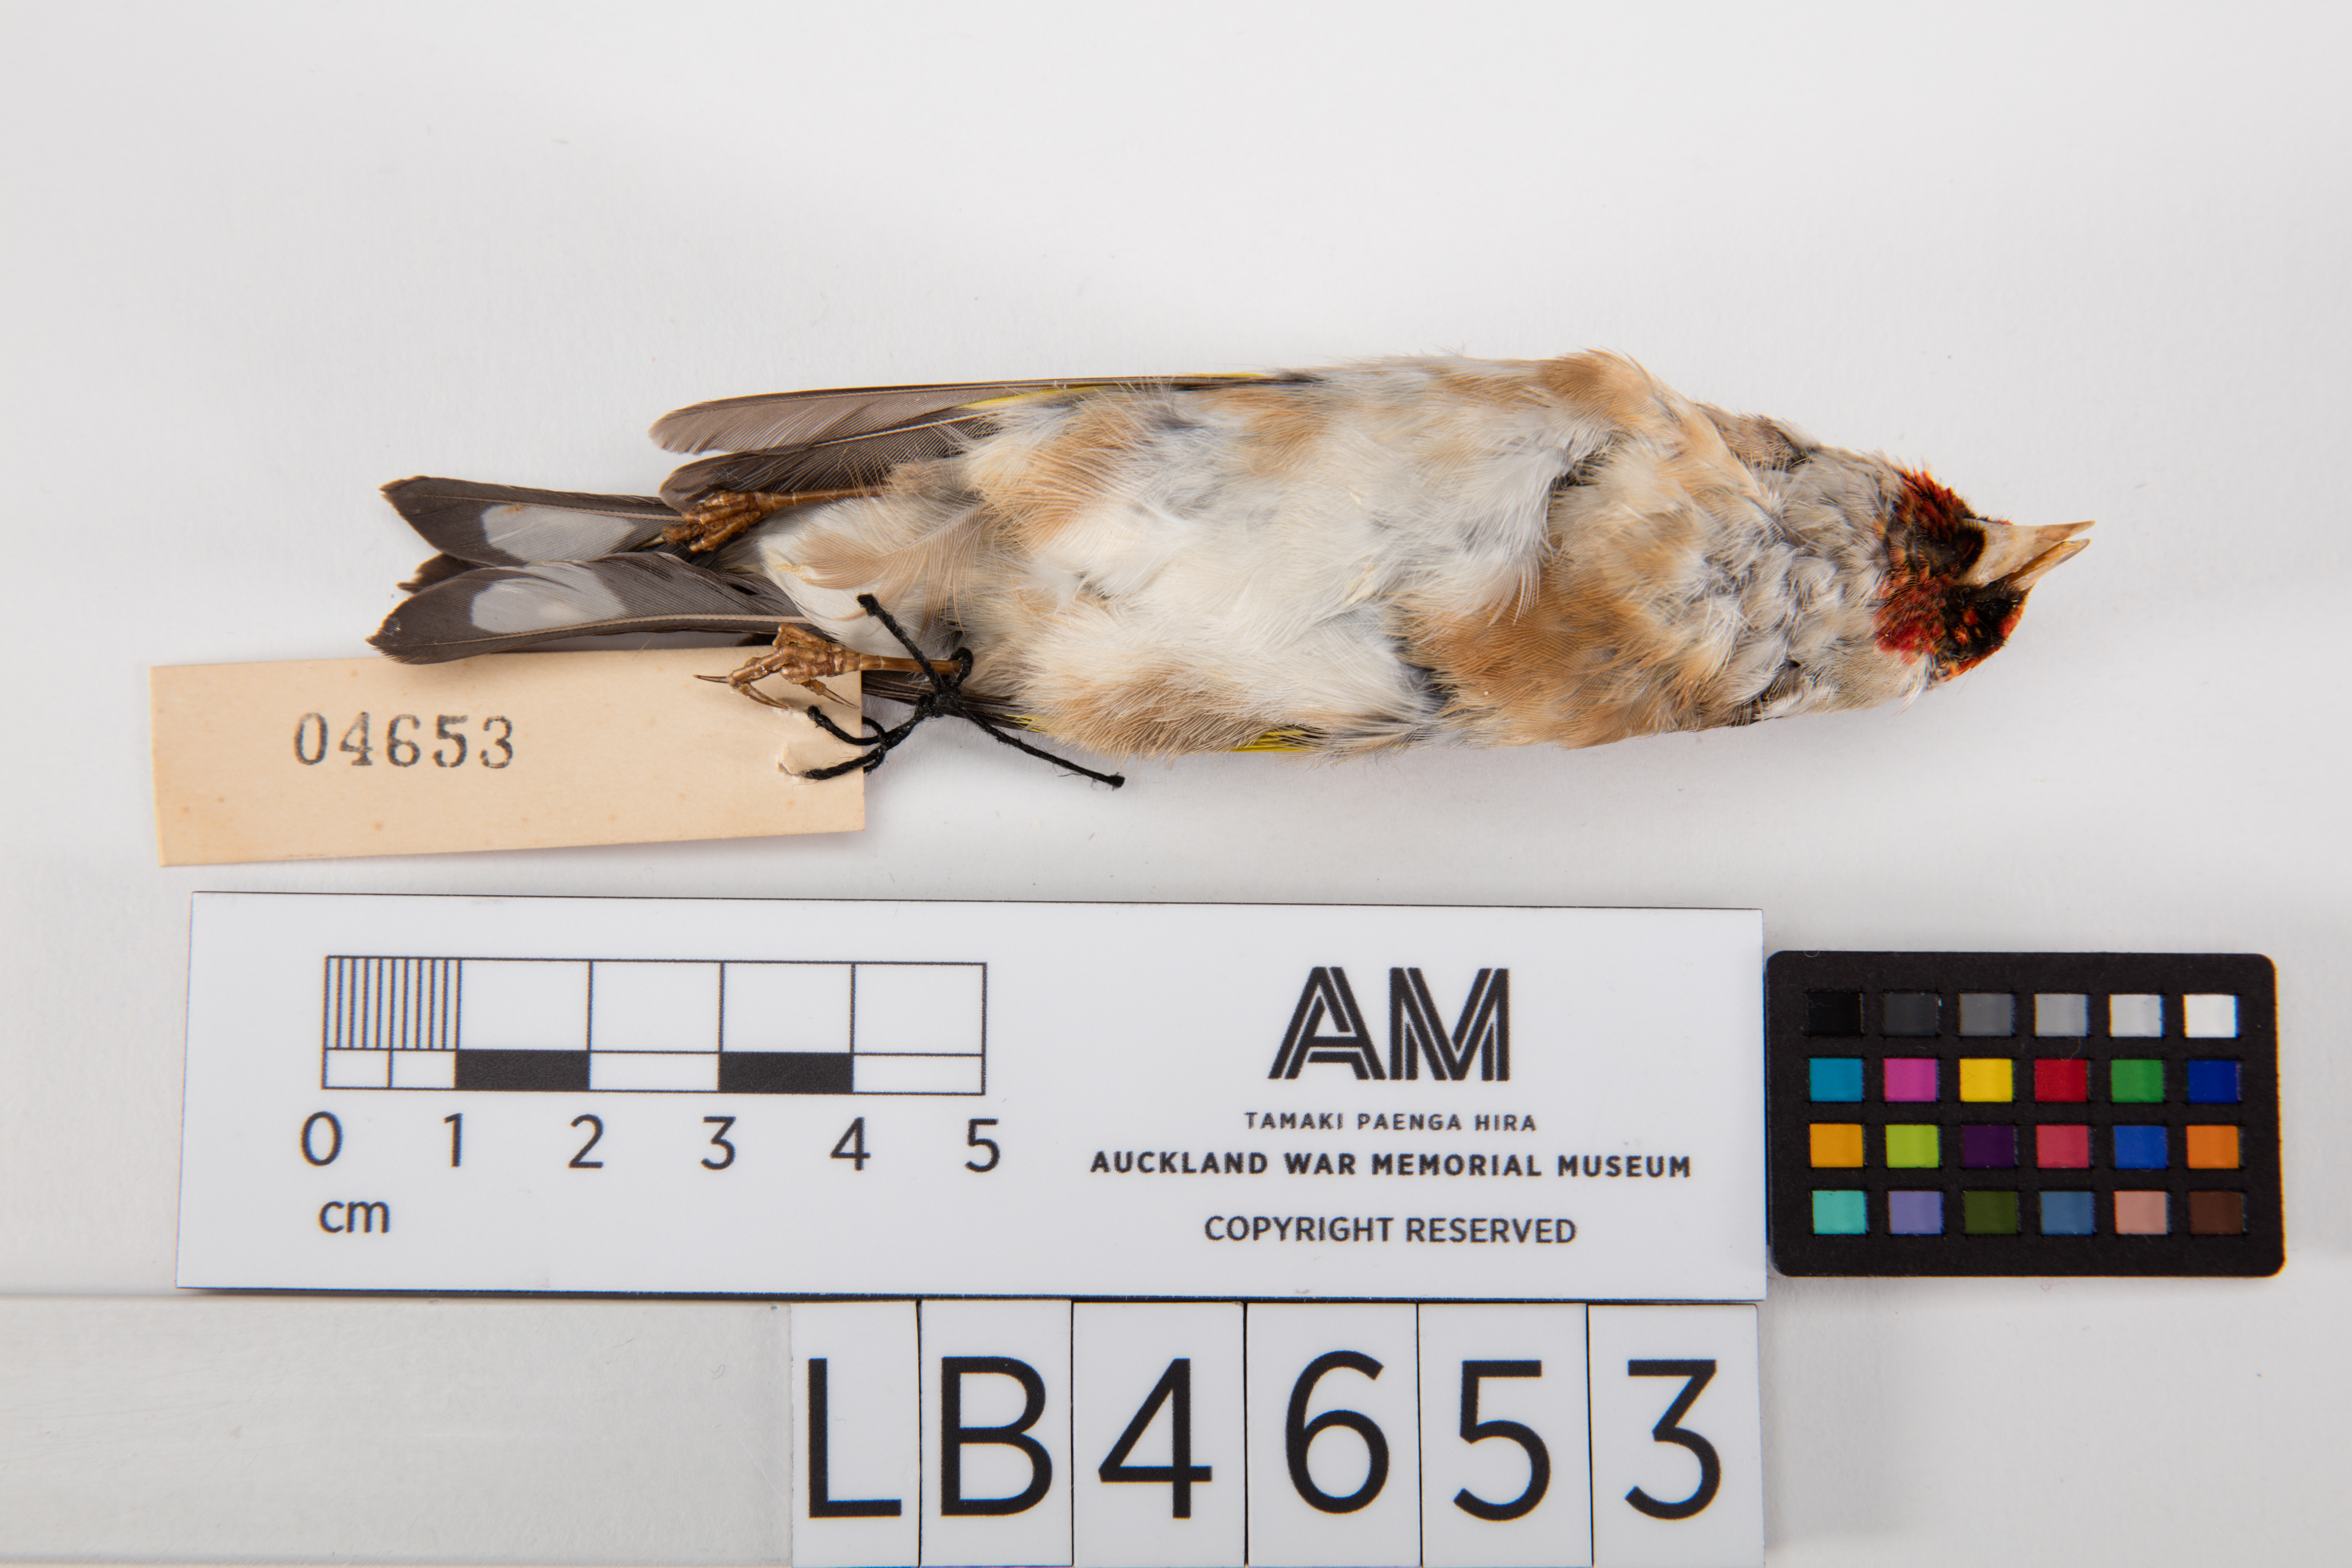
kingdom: Animalia
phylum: Chordata
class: Aves
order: Passeriformes
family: Fringillidae
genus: Carduelis
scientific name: Carduelis carduelis
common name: European goldfinch
